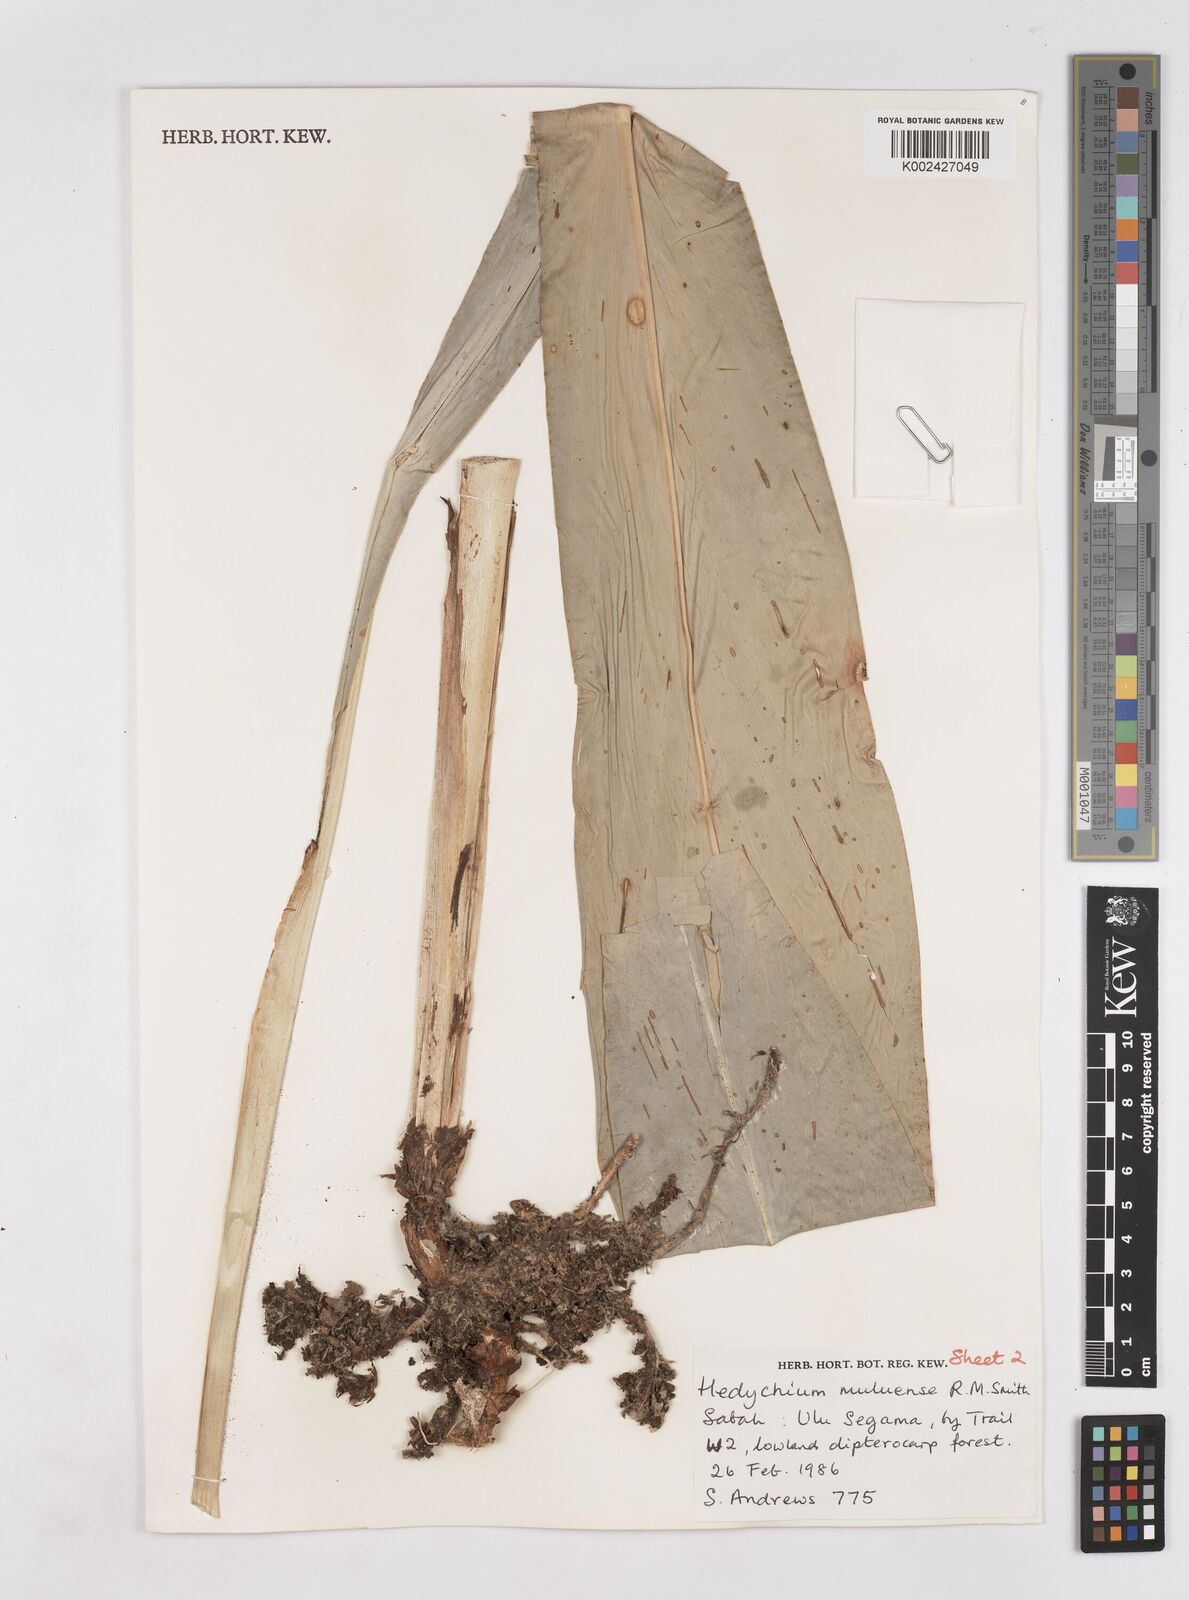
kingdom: Plantae
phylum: Tracheophyta
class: Liliopsida
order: Zingiberales
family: Zingiberaceae
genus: Hedychium
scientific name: Hedychium philippinense
